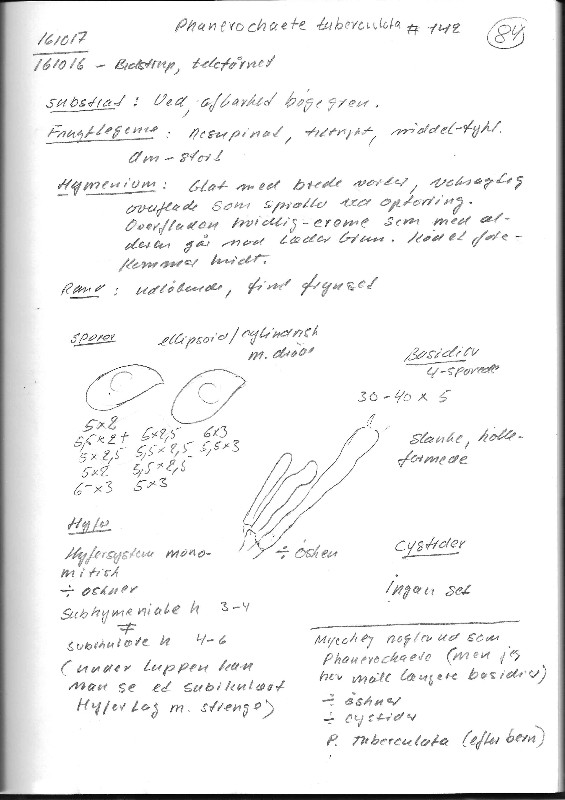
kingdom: Fungi
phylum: Basidiomycota
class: Agaricomycetes
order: Polyporales
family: Irpicaceae
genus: Efibula
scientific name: Efibula tuberculata
